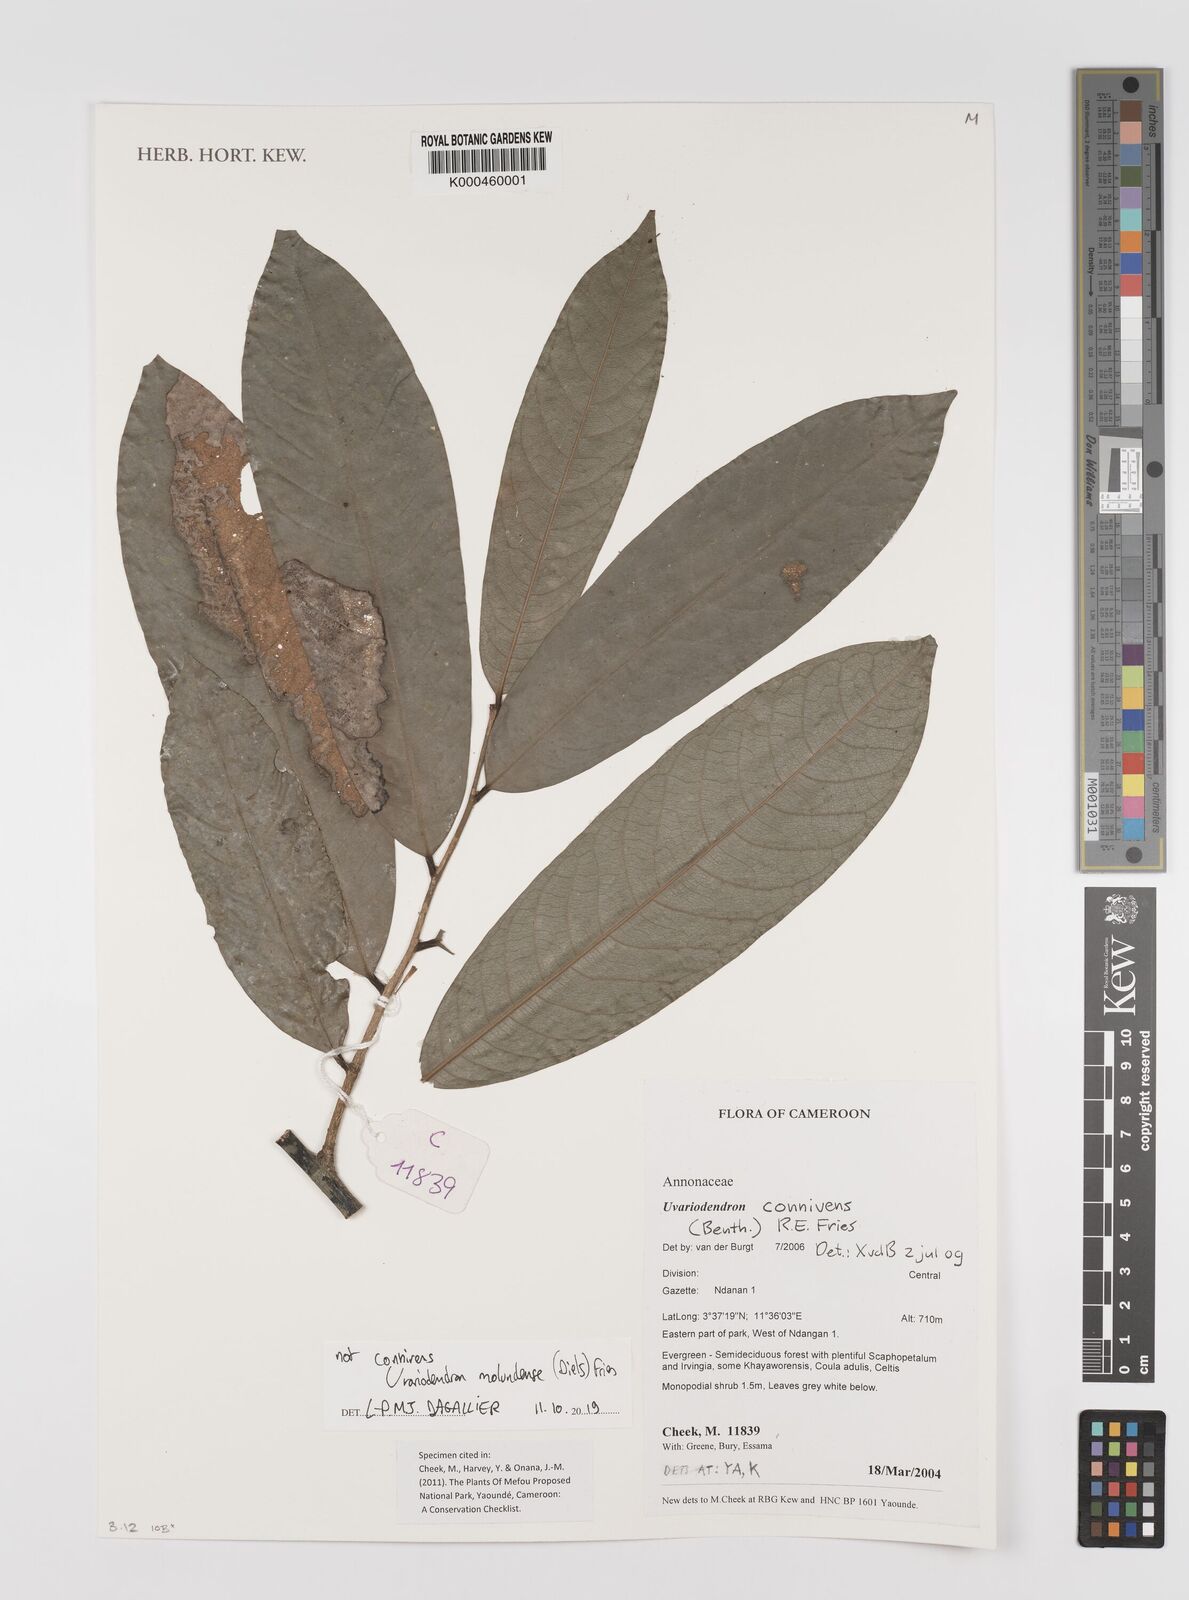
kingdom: Plantae
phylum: Tracheophyta
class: Magnoliopsida
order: Magnoliales
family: Annonaceae
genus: Uvariodendron
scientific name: Uvariodendron connivens
